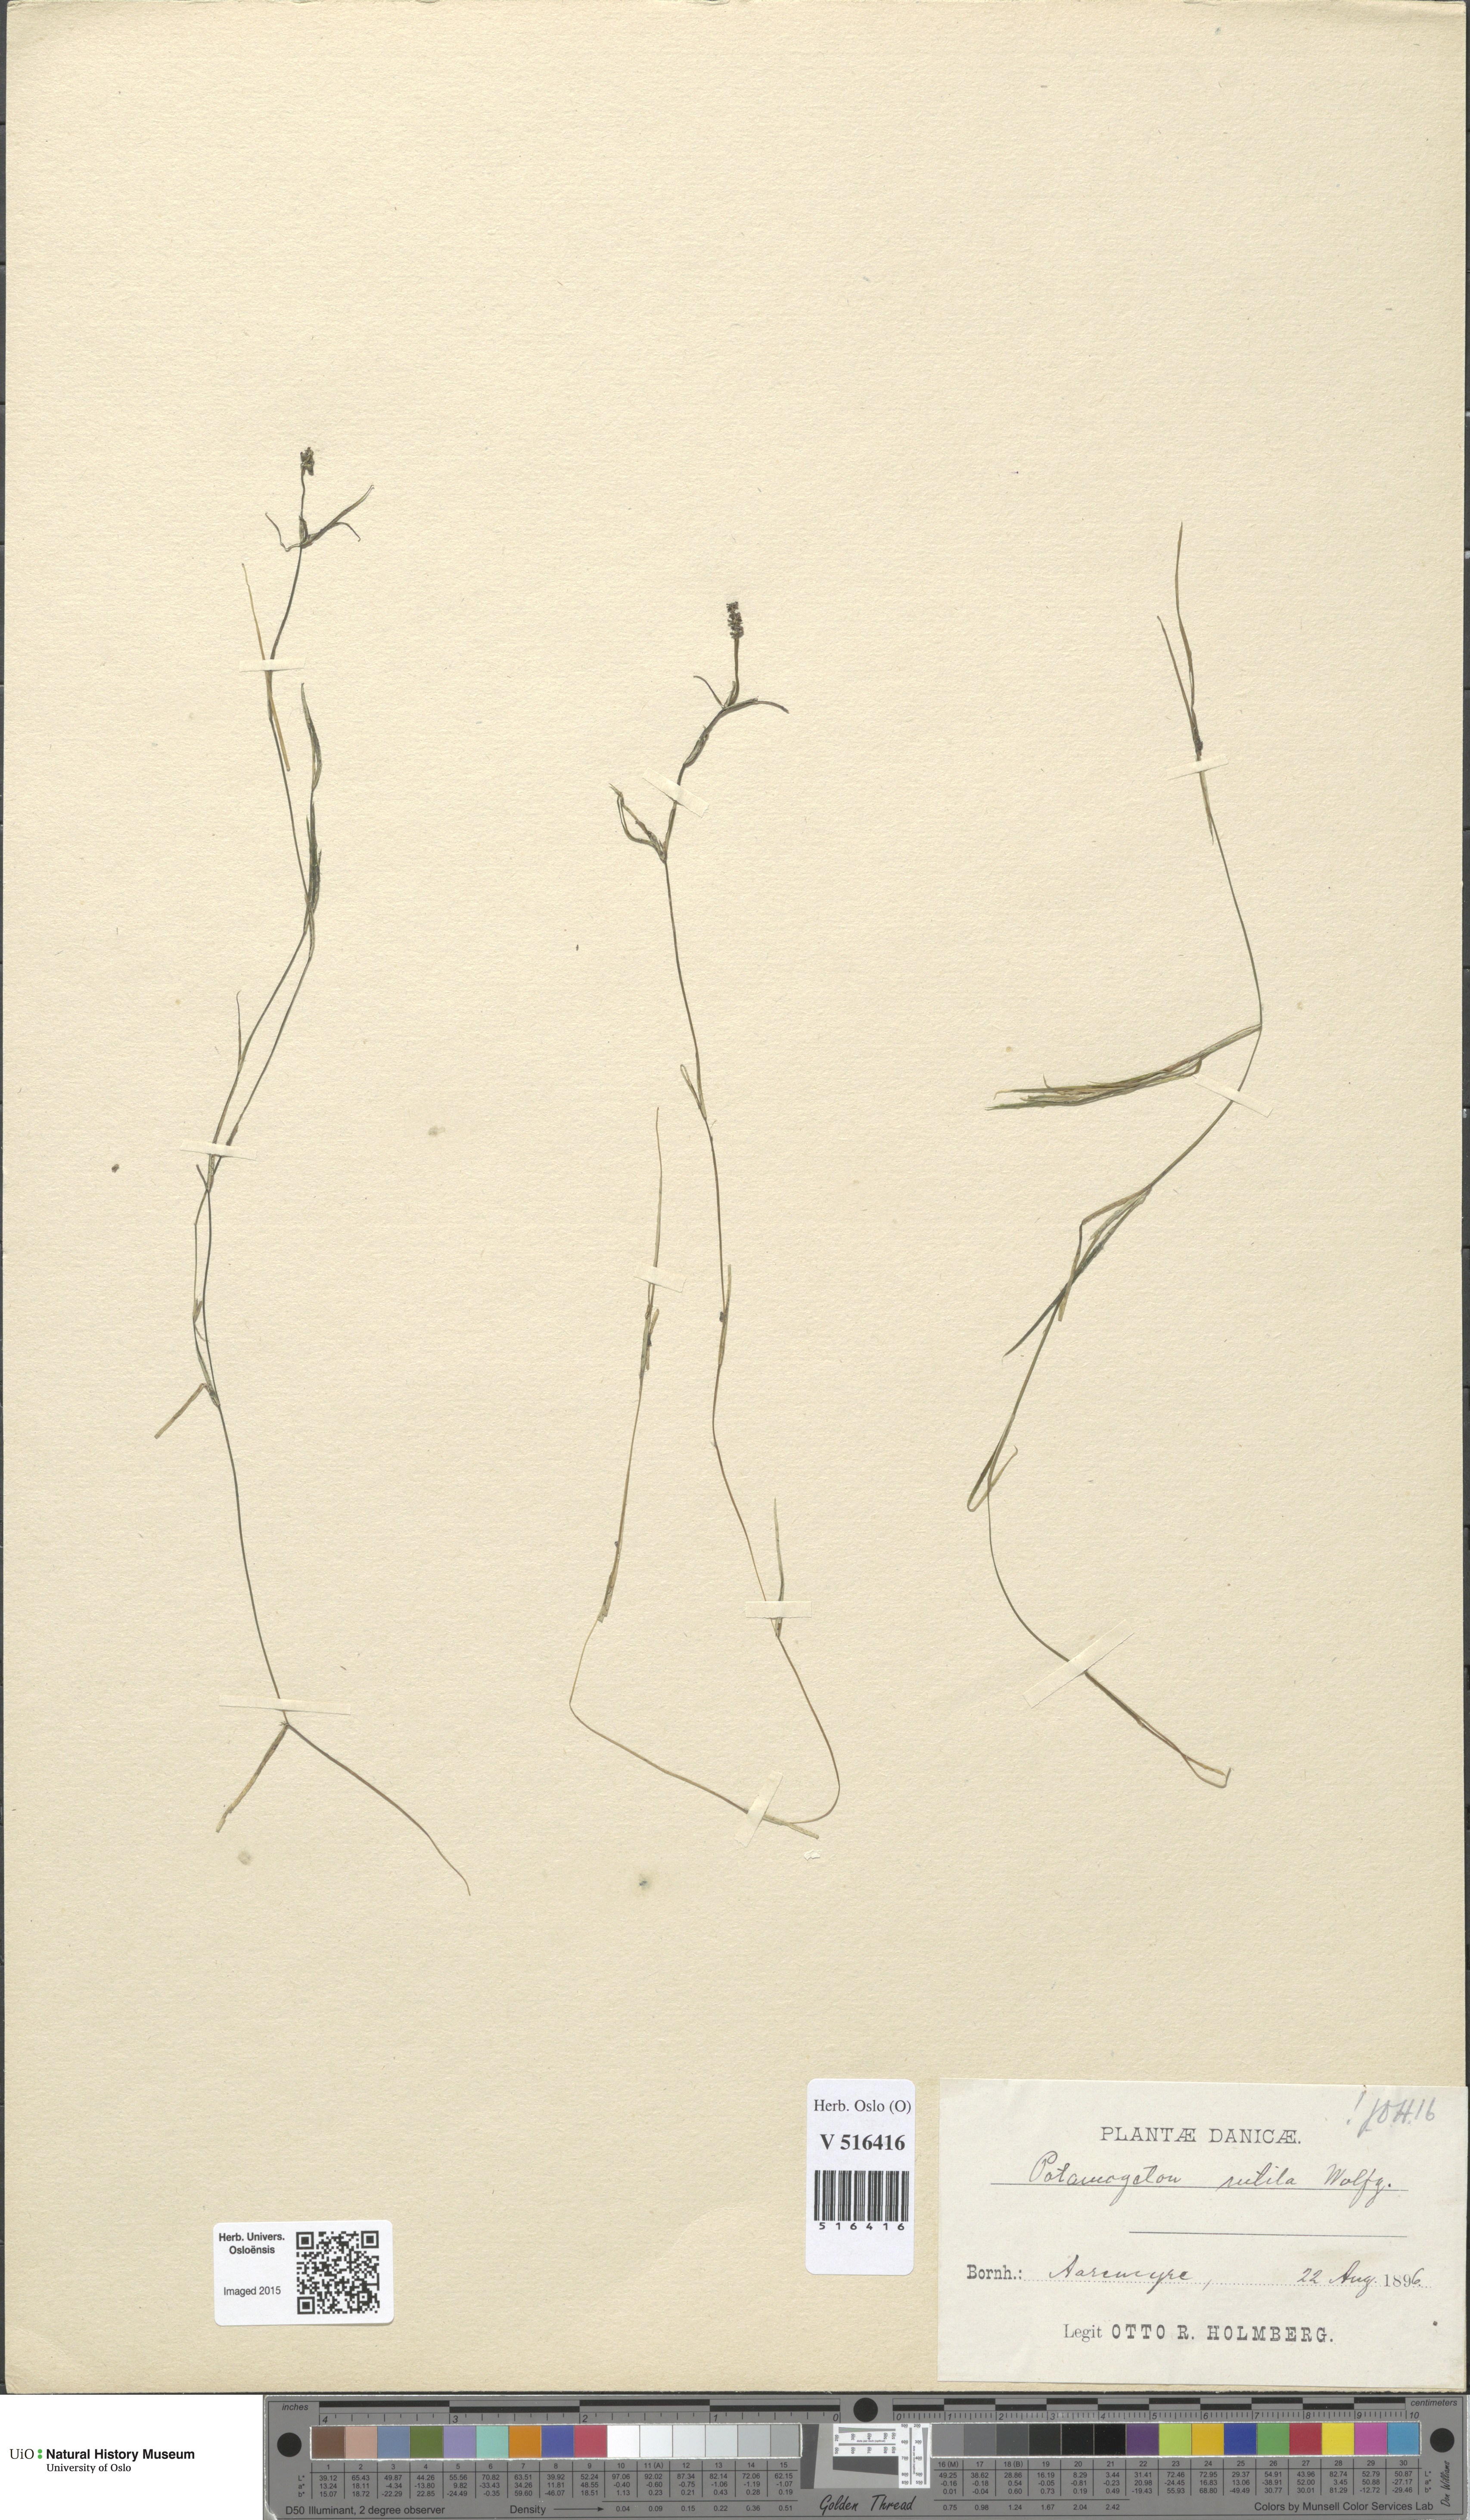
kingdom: Plantae
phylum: Tracheophyta
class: Liliopsida
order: Alismatales
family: Potamogetonaceae
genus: Potamogeton
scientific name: Potamogeton rutilus
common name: Shetland pondweed
